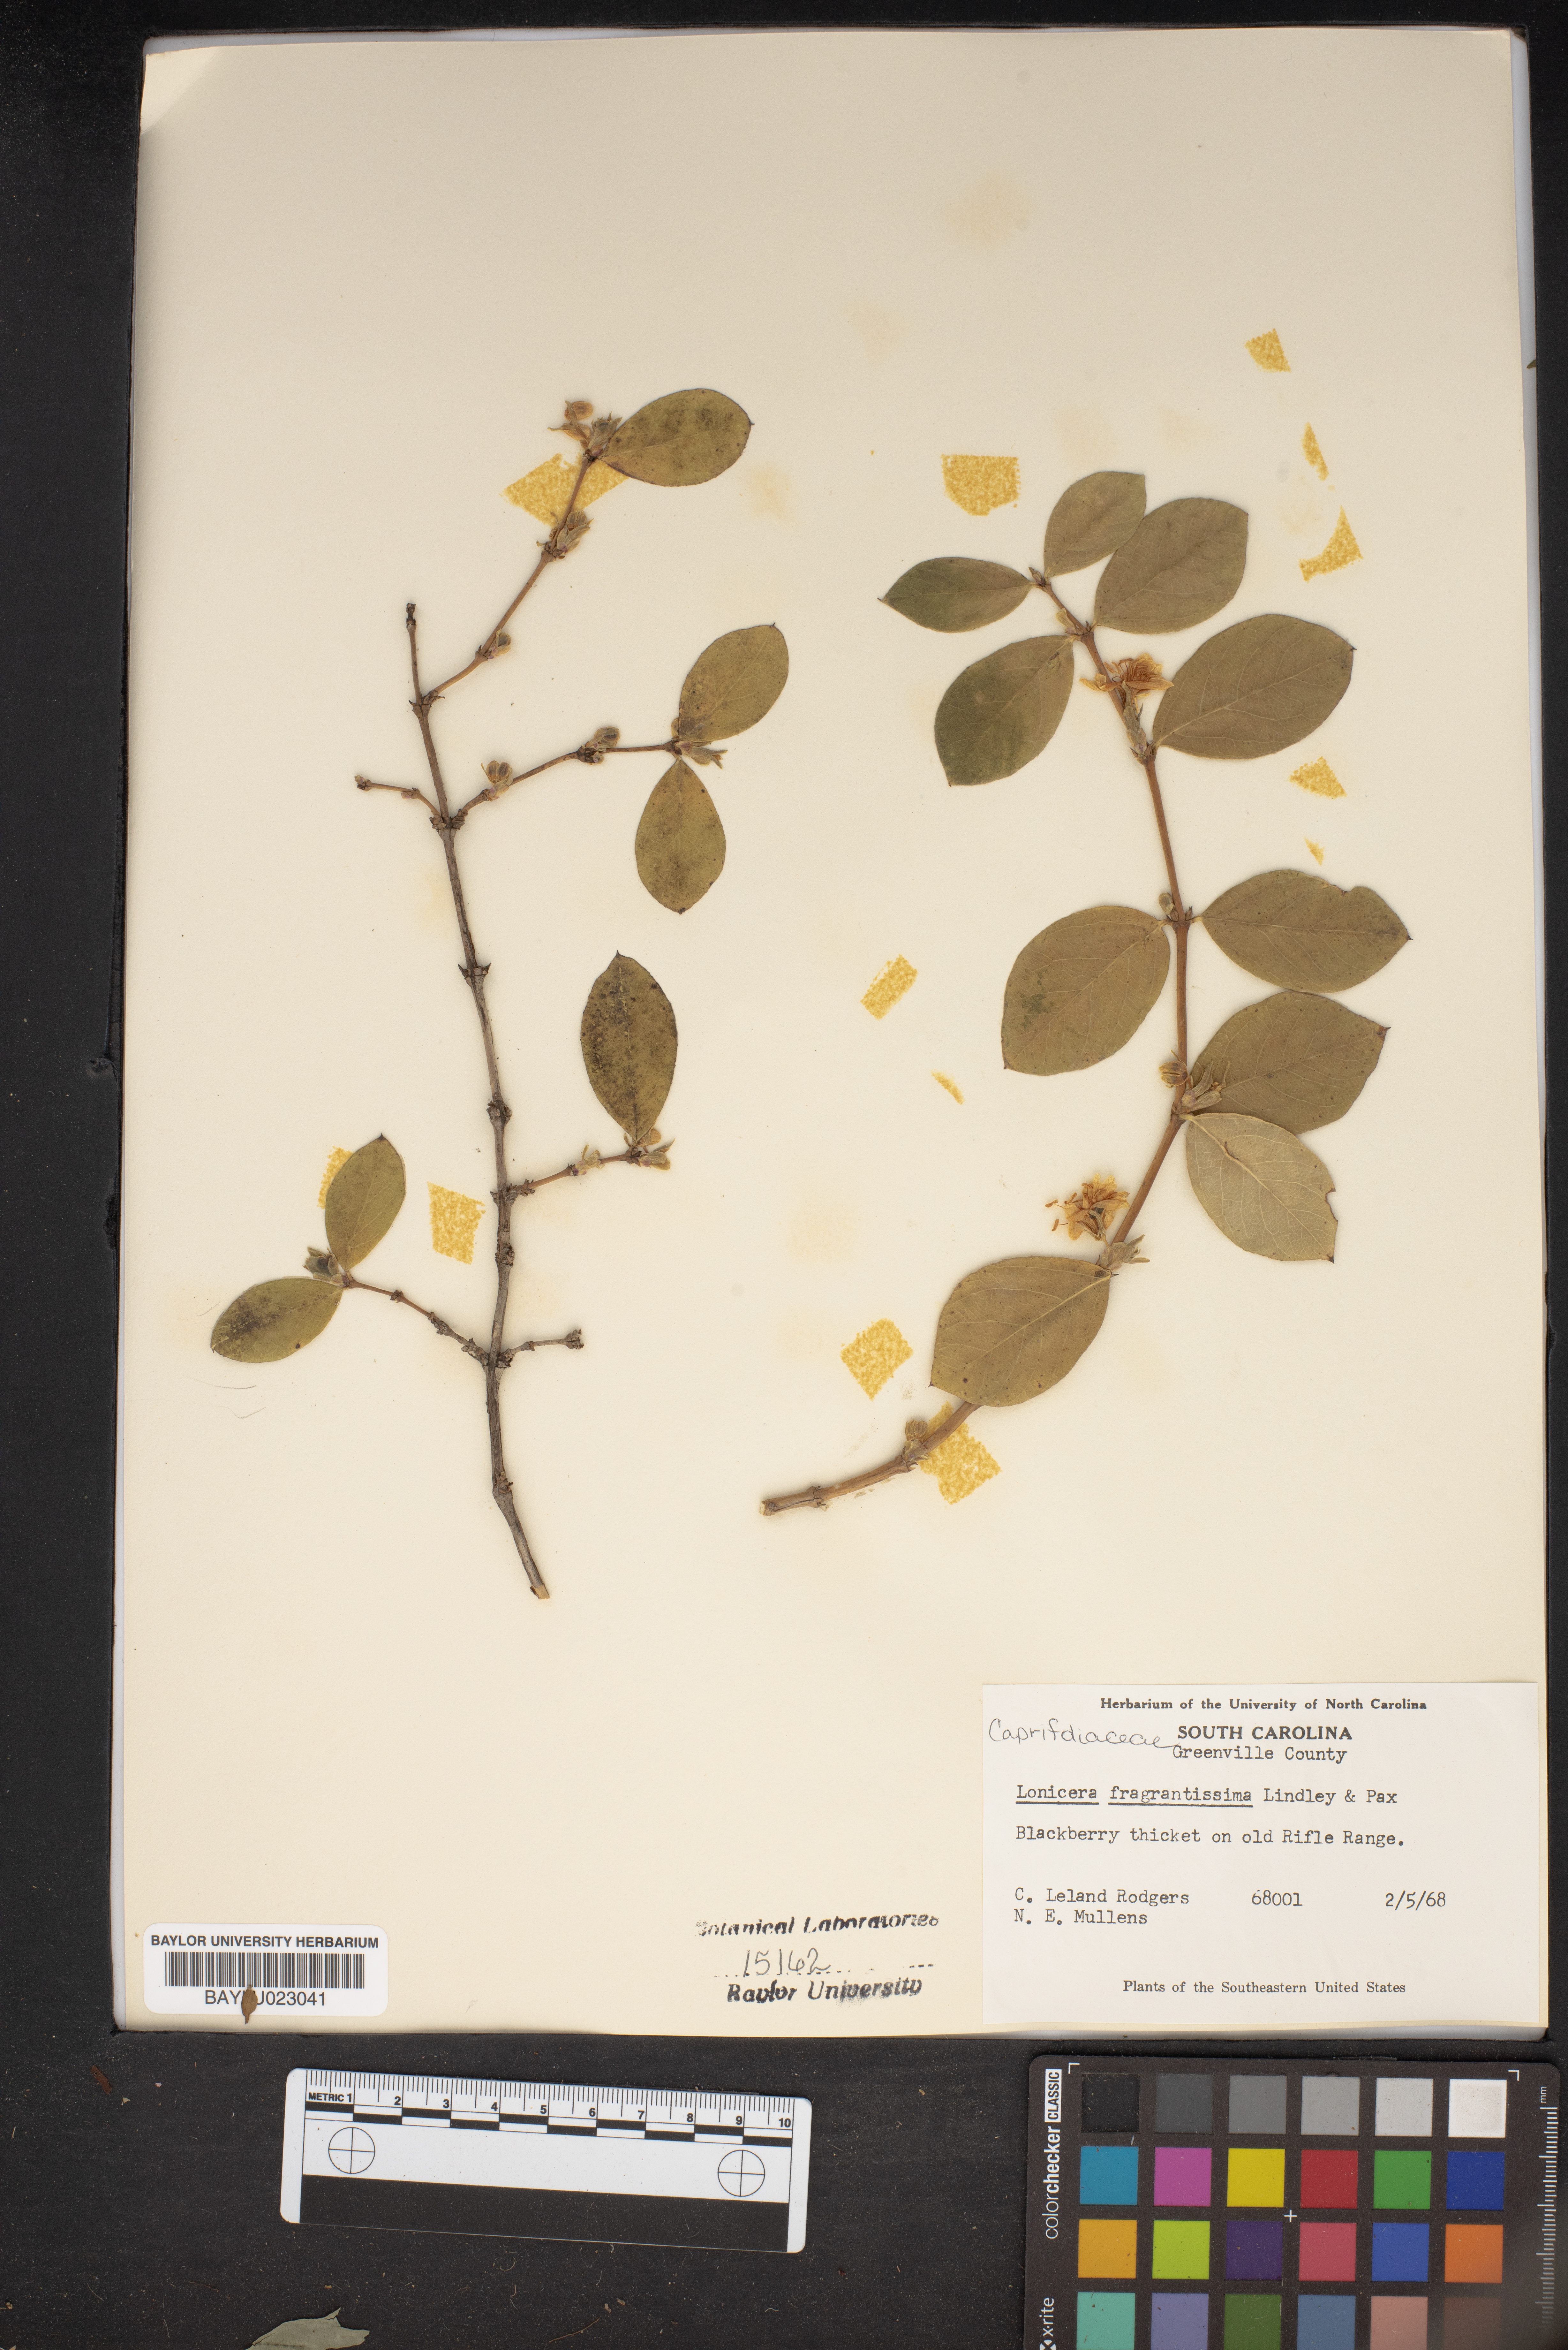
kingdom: Plantae
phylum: Tracheophyta
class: Magnoliopsida
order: Dipsacales
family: Caprifoliaceae
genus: Lonicera
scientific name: Lonicera fragrantissima
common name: Fragrant honeysuckle
